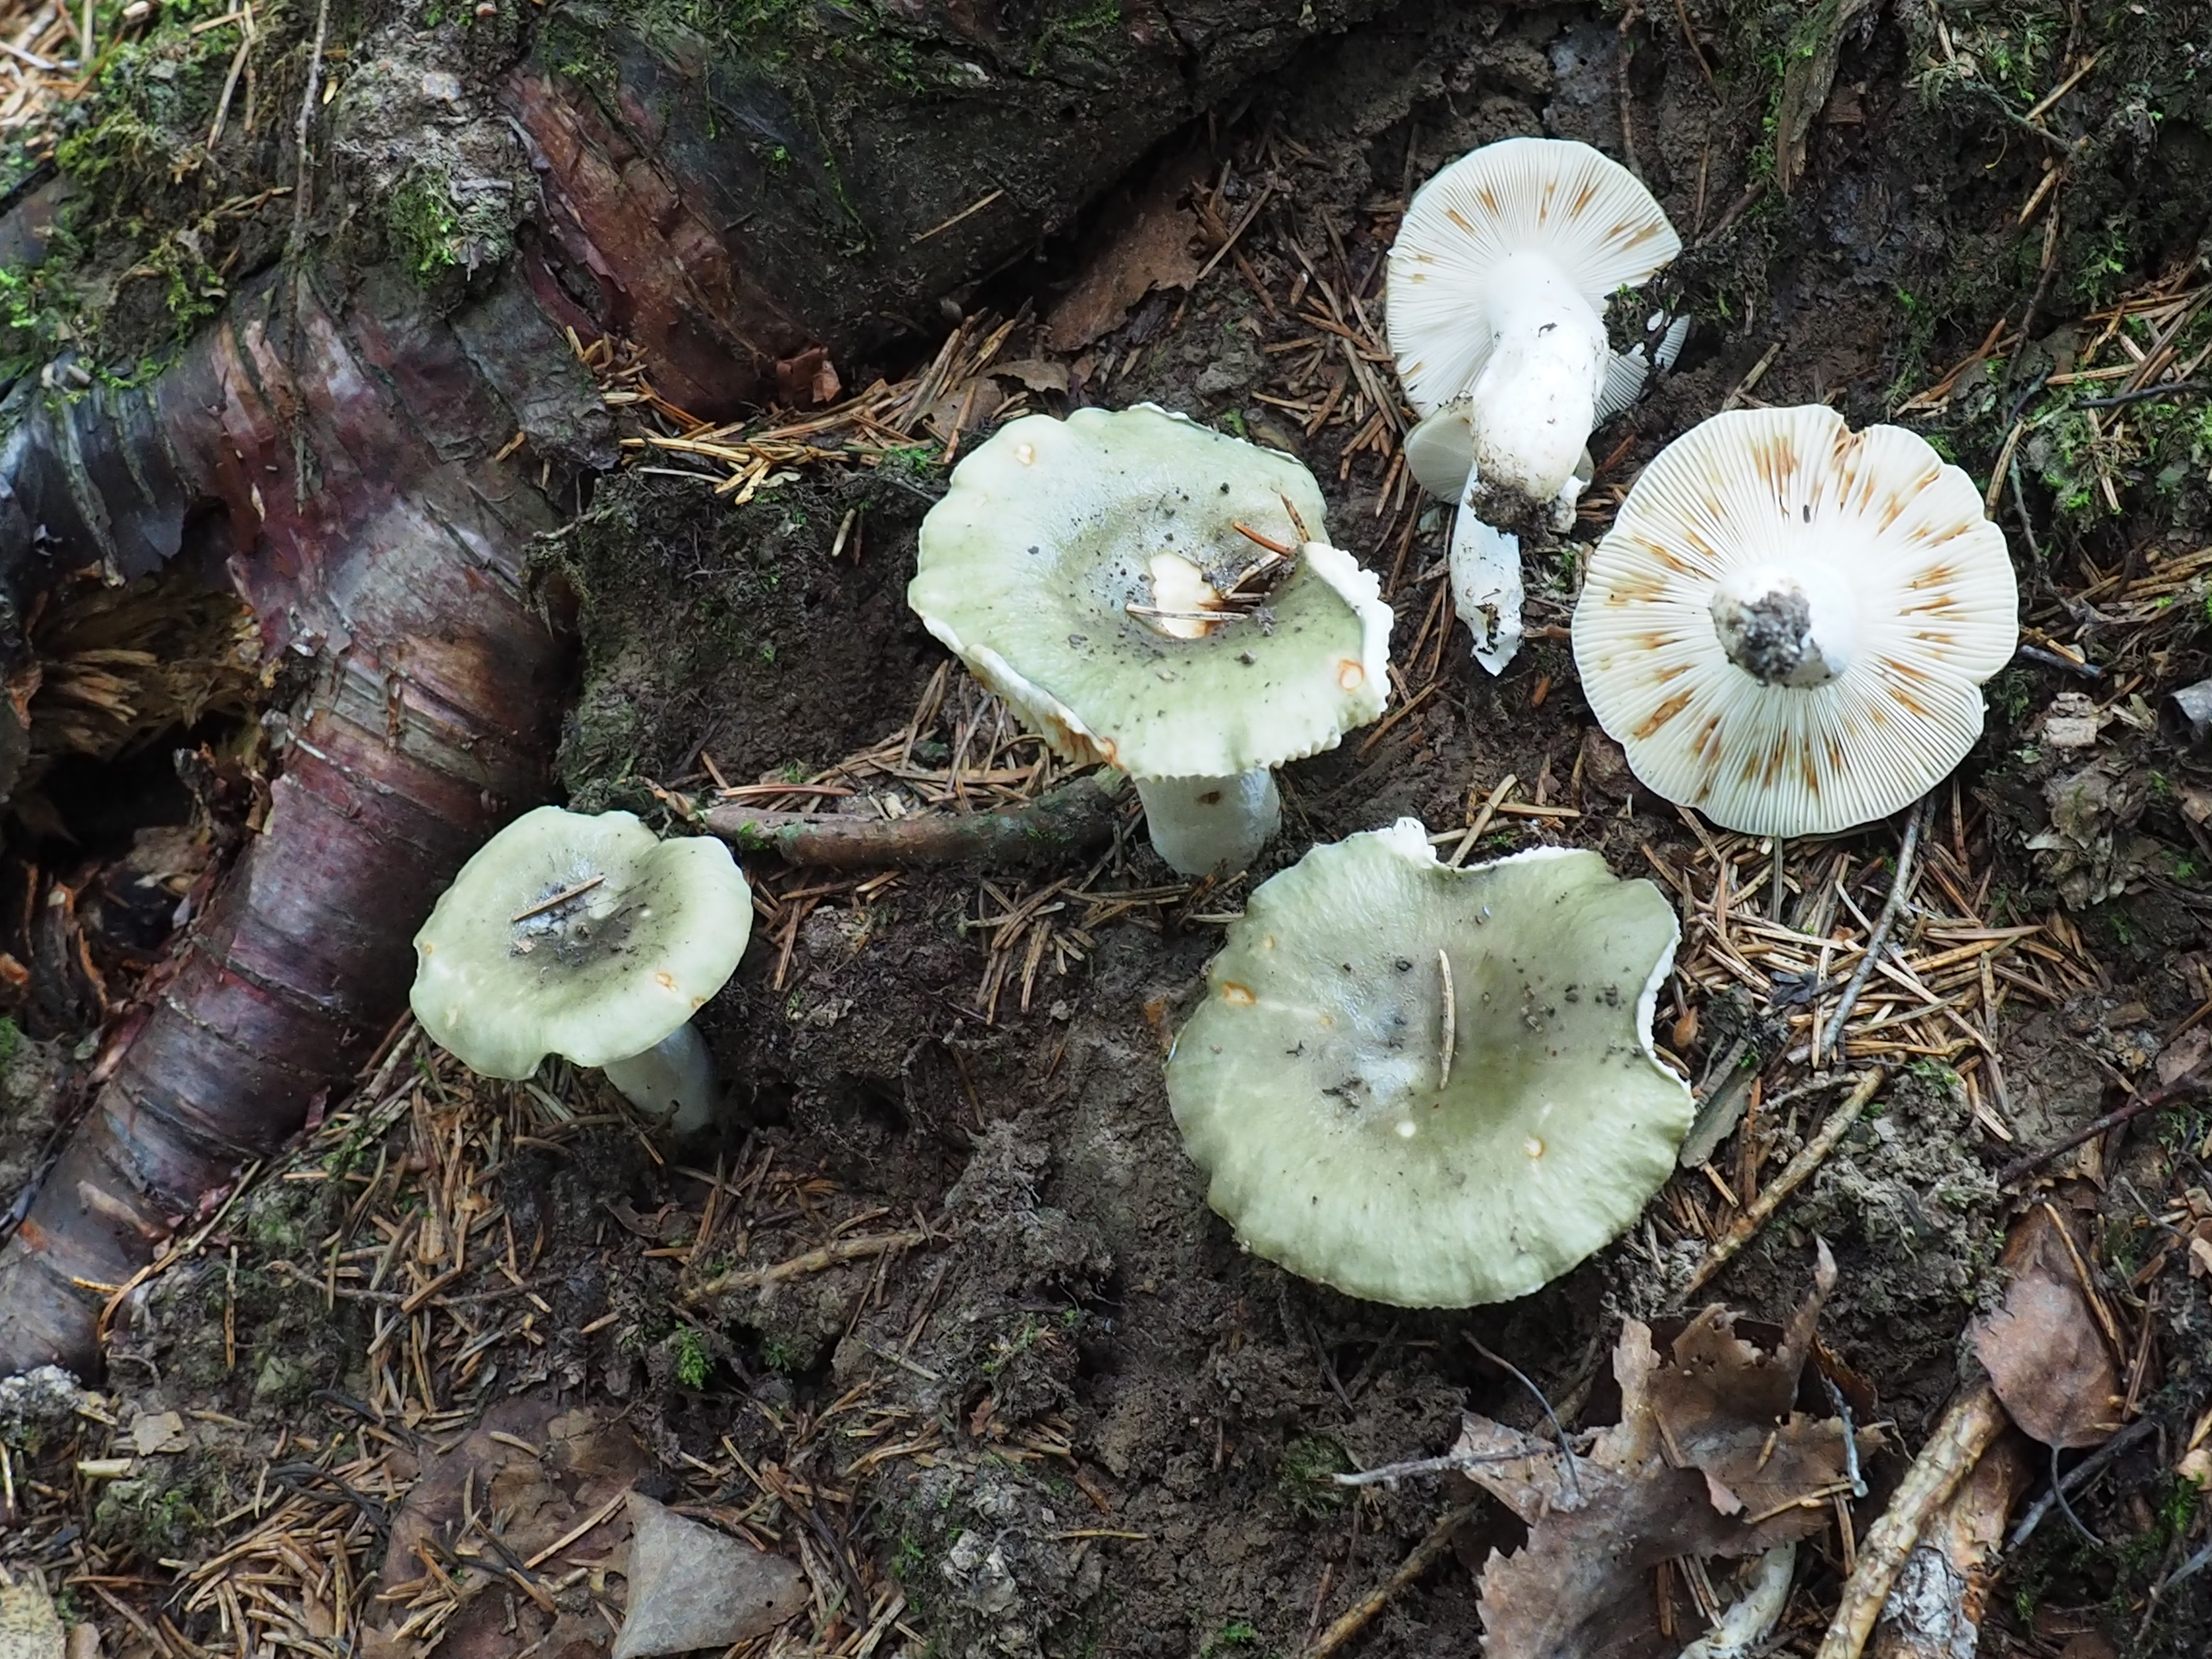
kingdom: Fungi
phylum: Basidiomycota
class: Agaricomycetes
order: Russulales
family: Russulaceae
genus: Russula
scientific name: Russula aeruginea
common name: Green brittlegill
